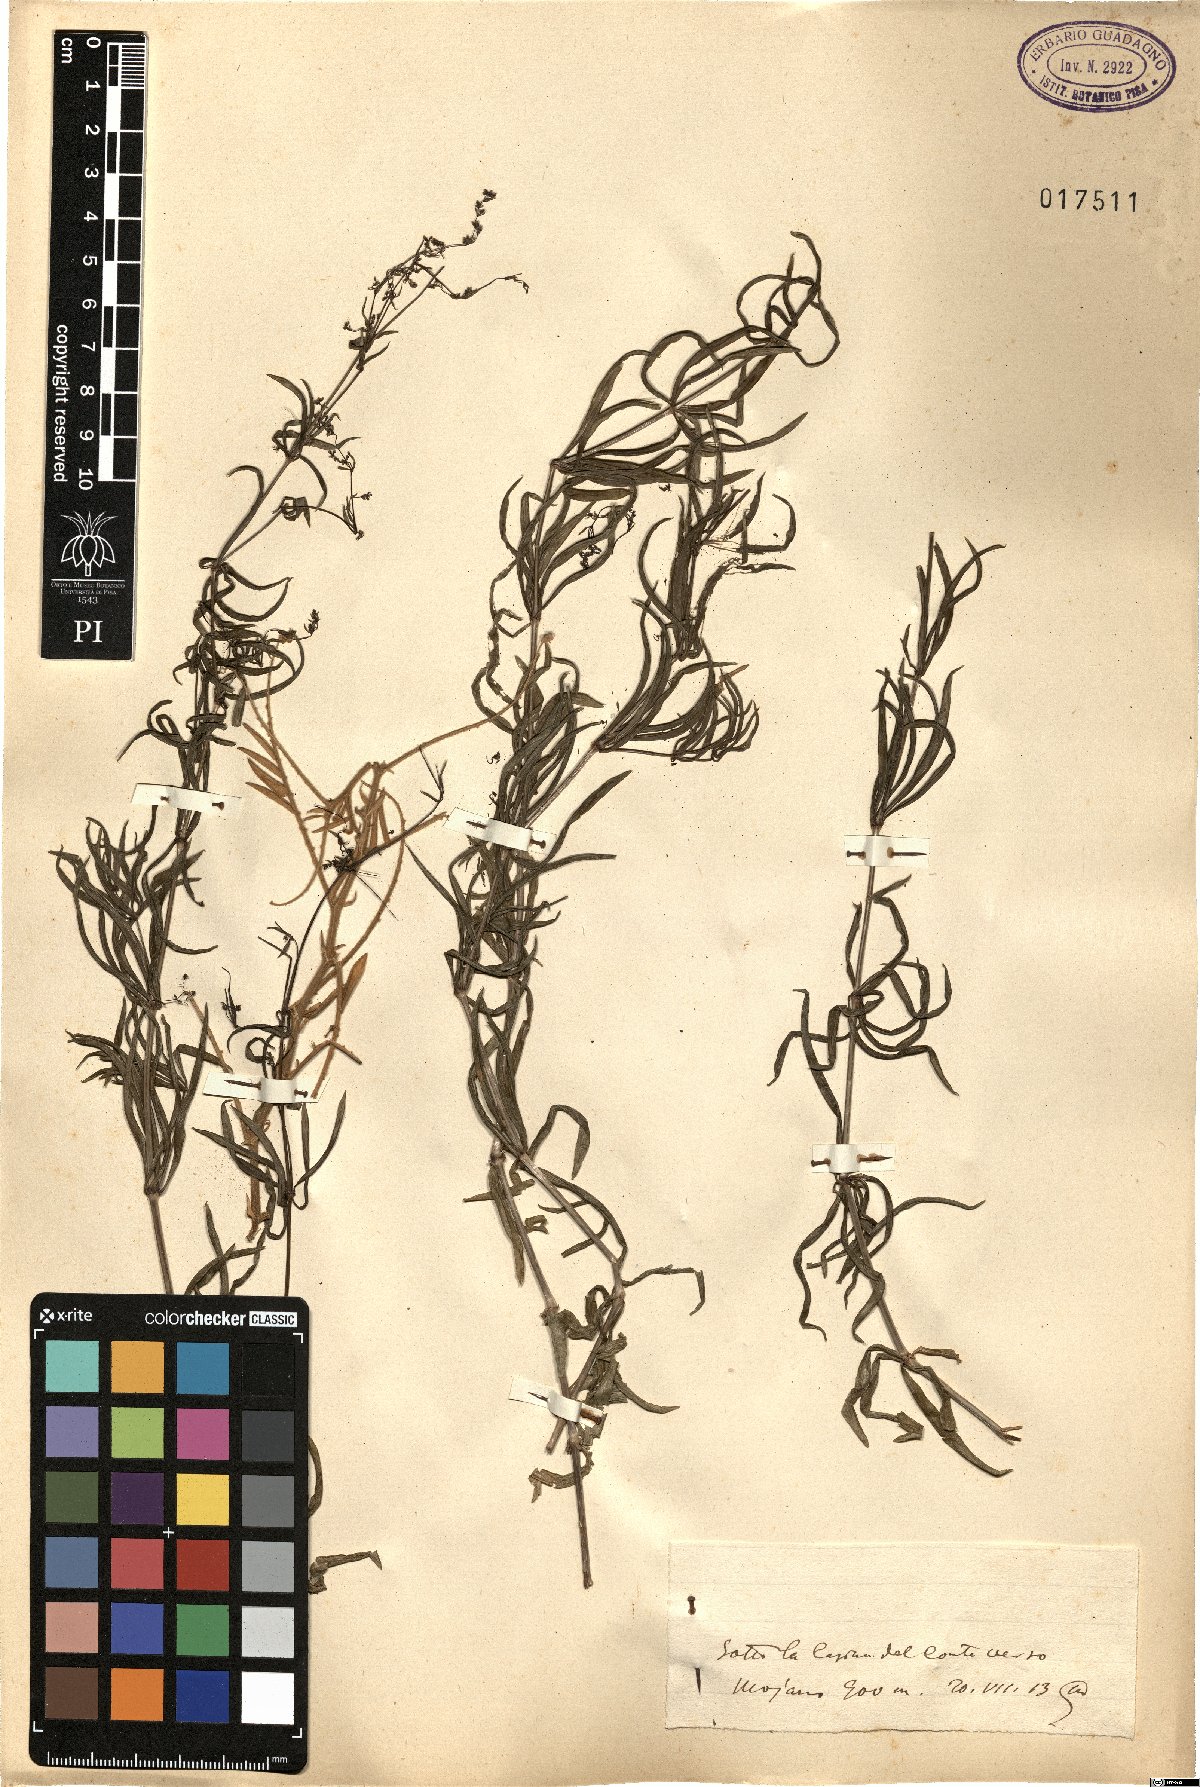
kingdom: Plantae
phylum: Tracheophyta
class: Magnoliopsida
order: Gentianales
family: Rubiaceae
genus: Galium
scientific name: Galium
